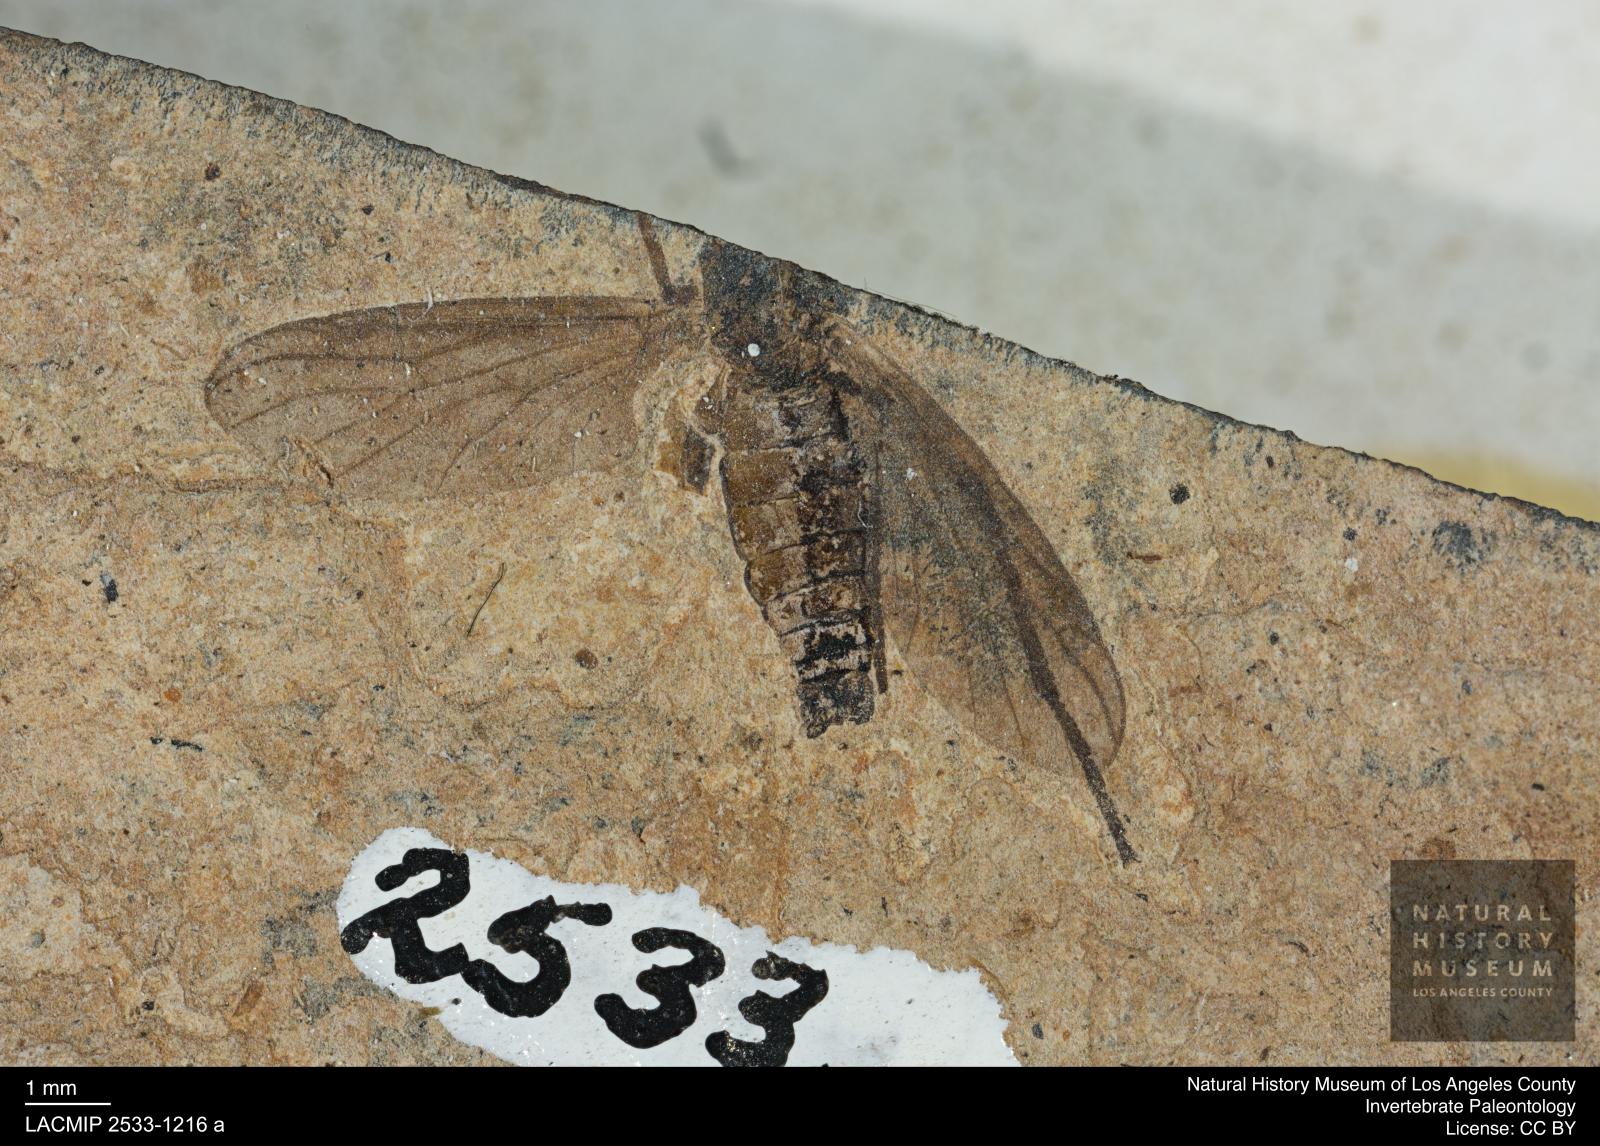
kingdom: Animalia
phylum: Arthropoda
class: Insecta
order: Diptera
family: Bibionidae
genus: Plecia
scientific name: Plecia
